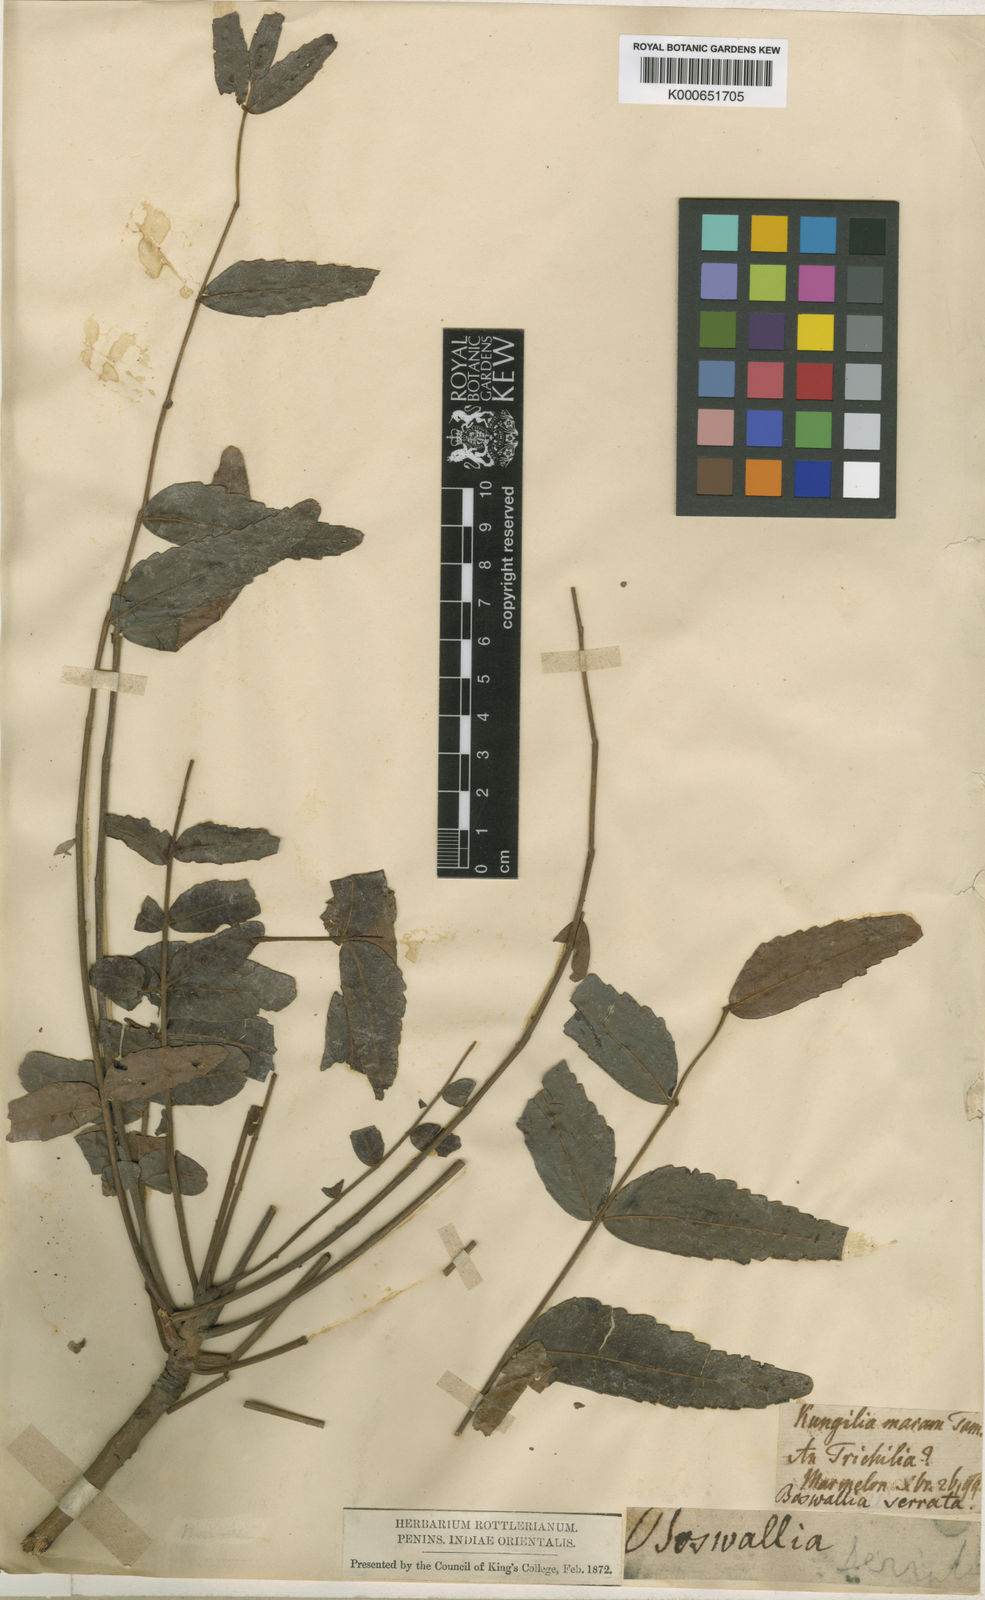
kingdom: Plantae
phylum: Tracheophyta
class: Magnoliopsida
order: Sapindales
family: Burseraceae
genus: Boswellia
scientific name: Boswellia serrata
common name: Boswellia
